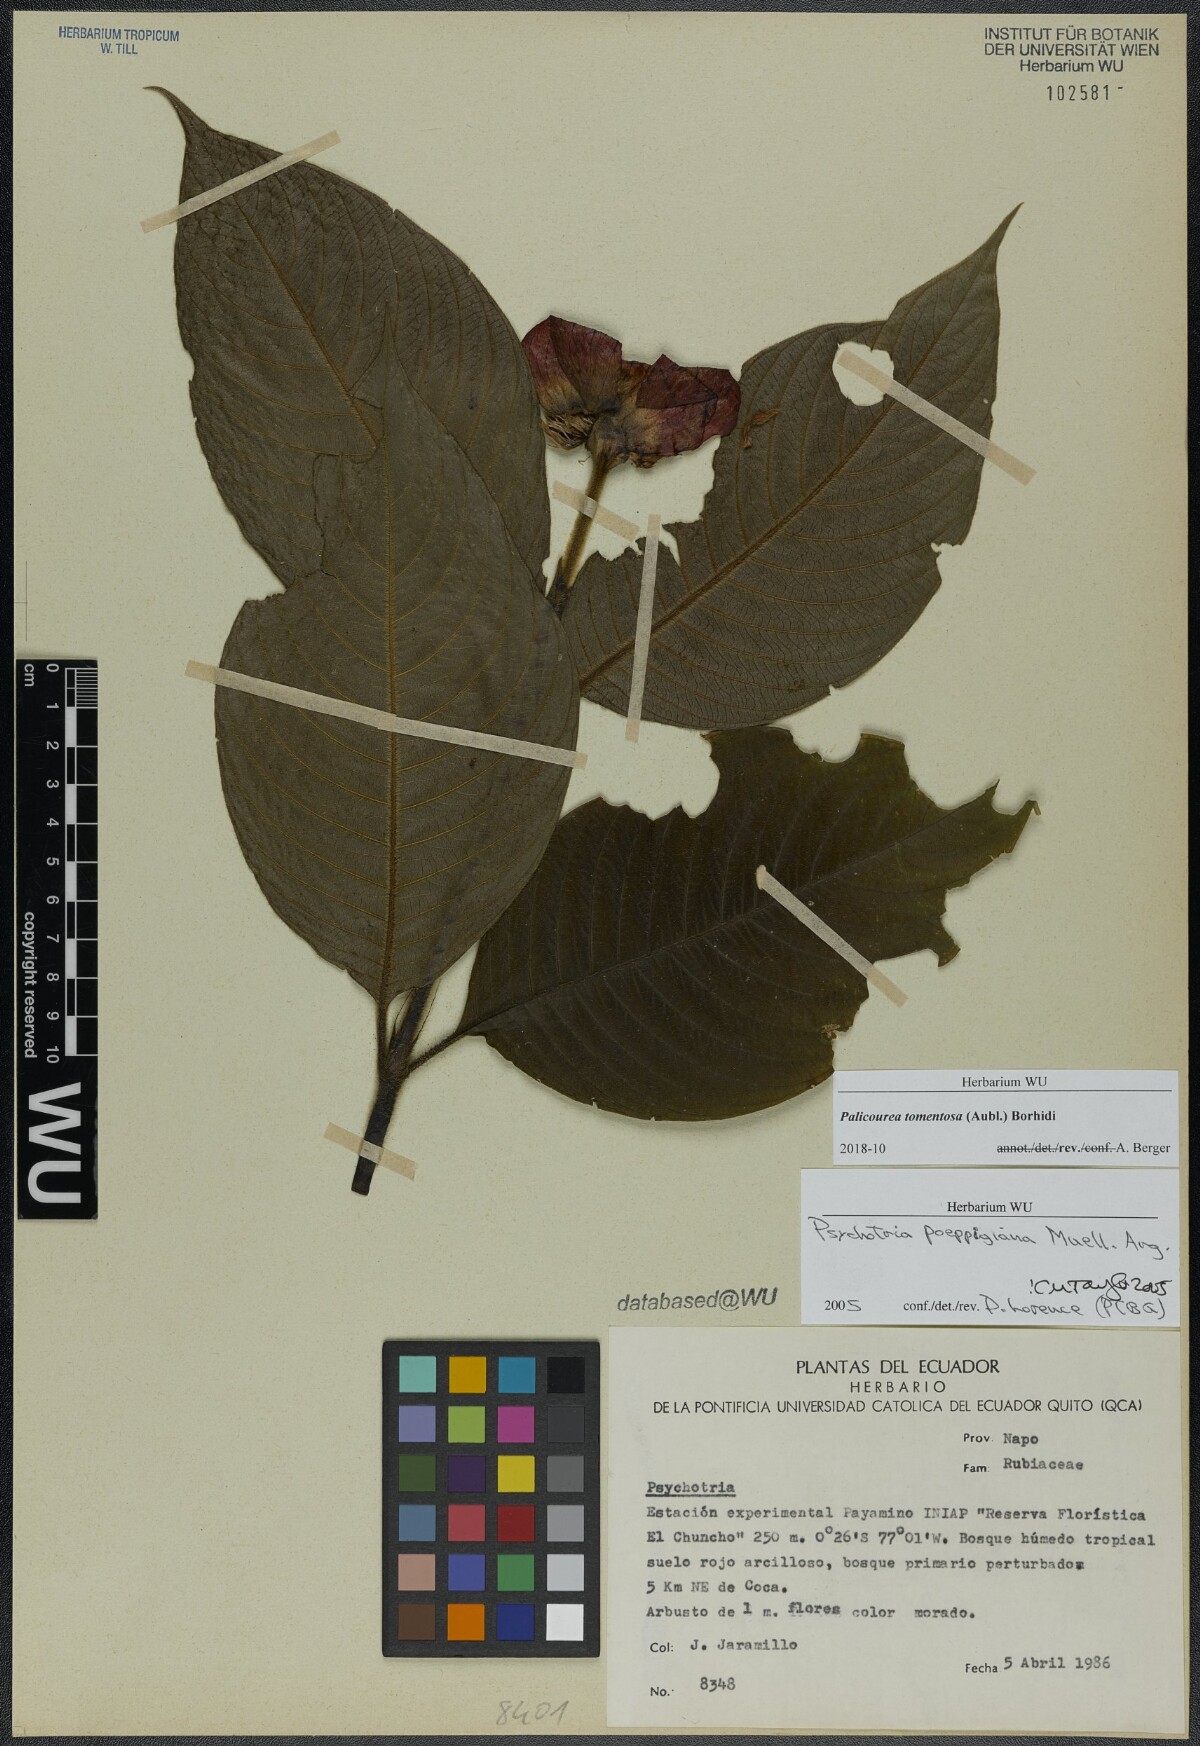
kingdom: Plantae
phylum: Tracheophyta
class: Magnoliopsida
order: Gentianales
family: Rubiaceae
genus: Palicourea
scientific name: Palicourea tomentosa
